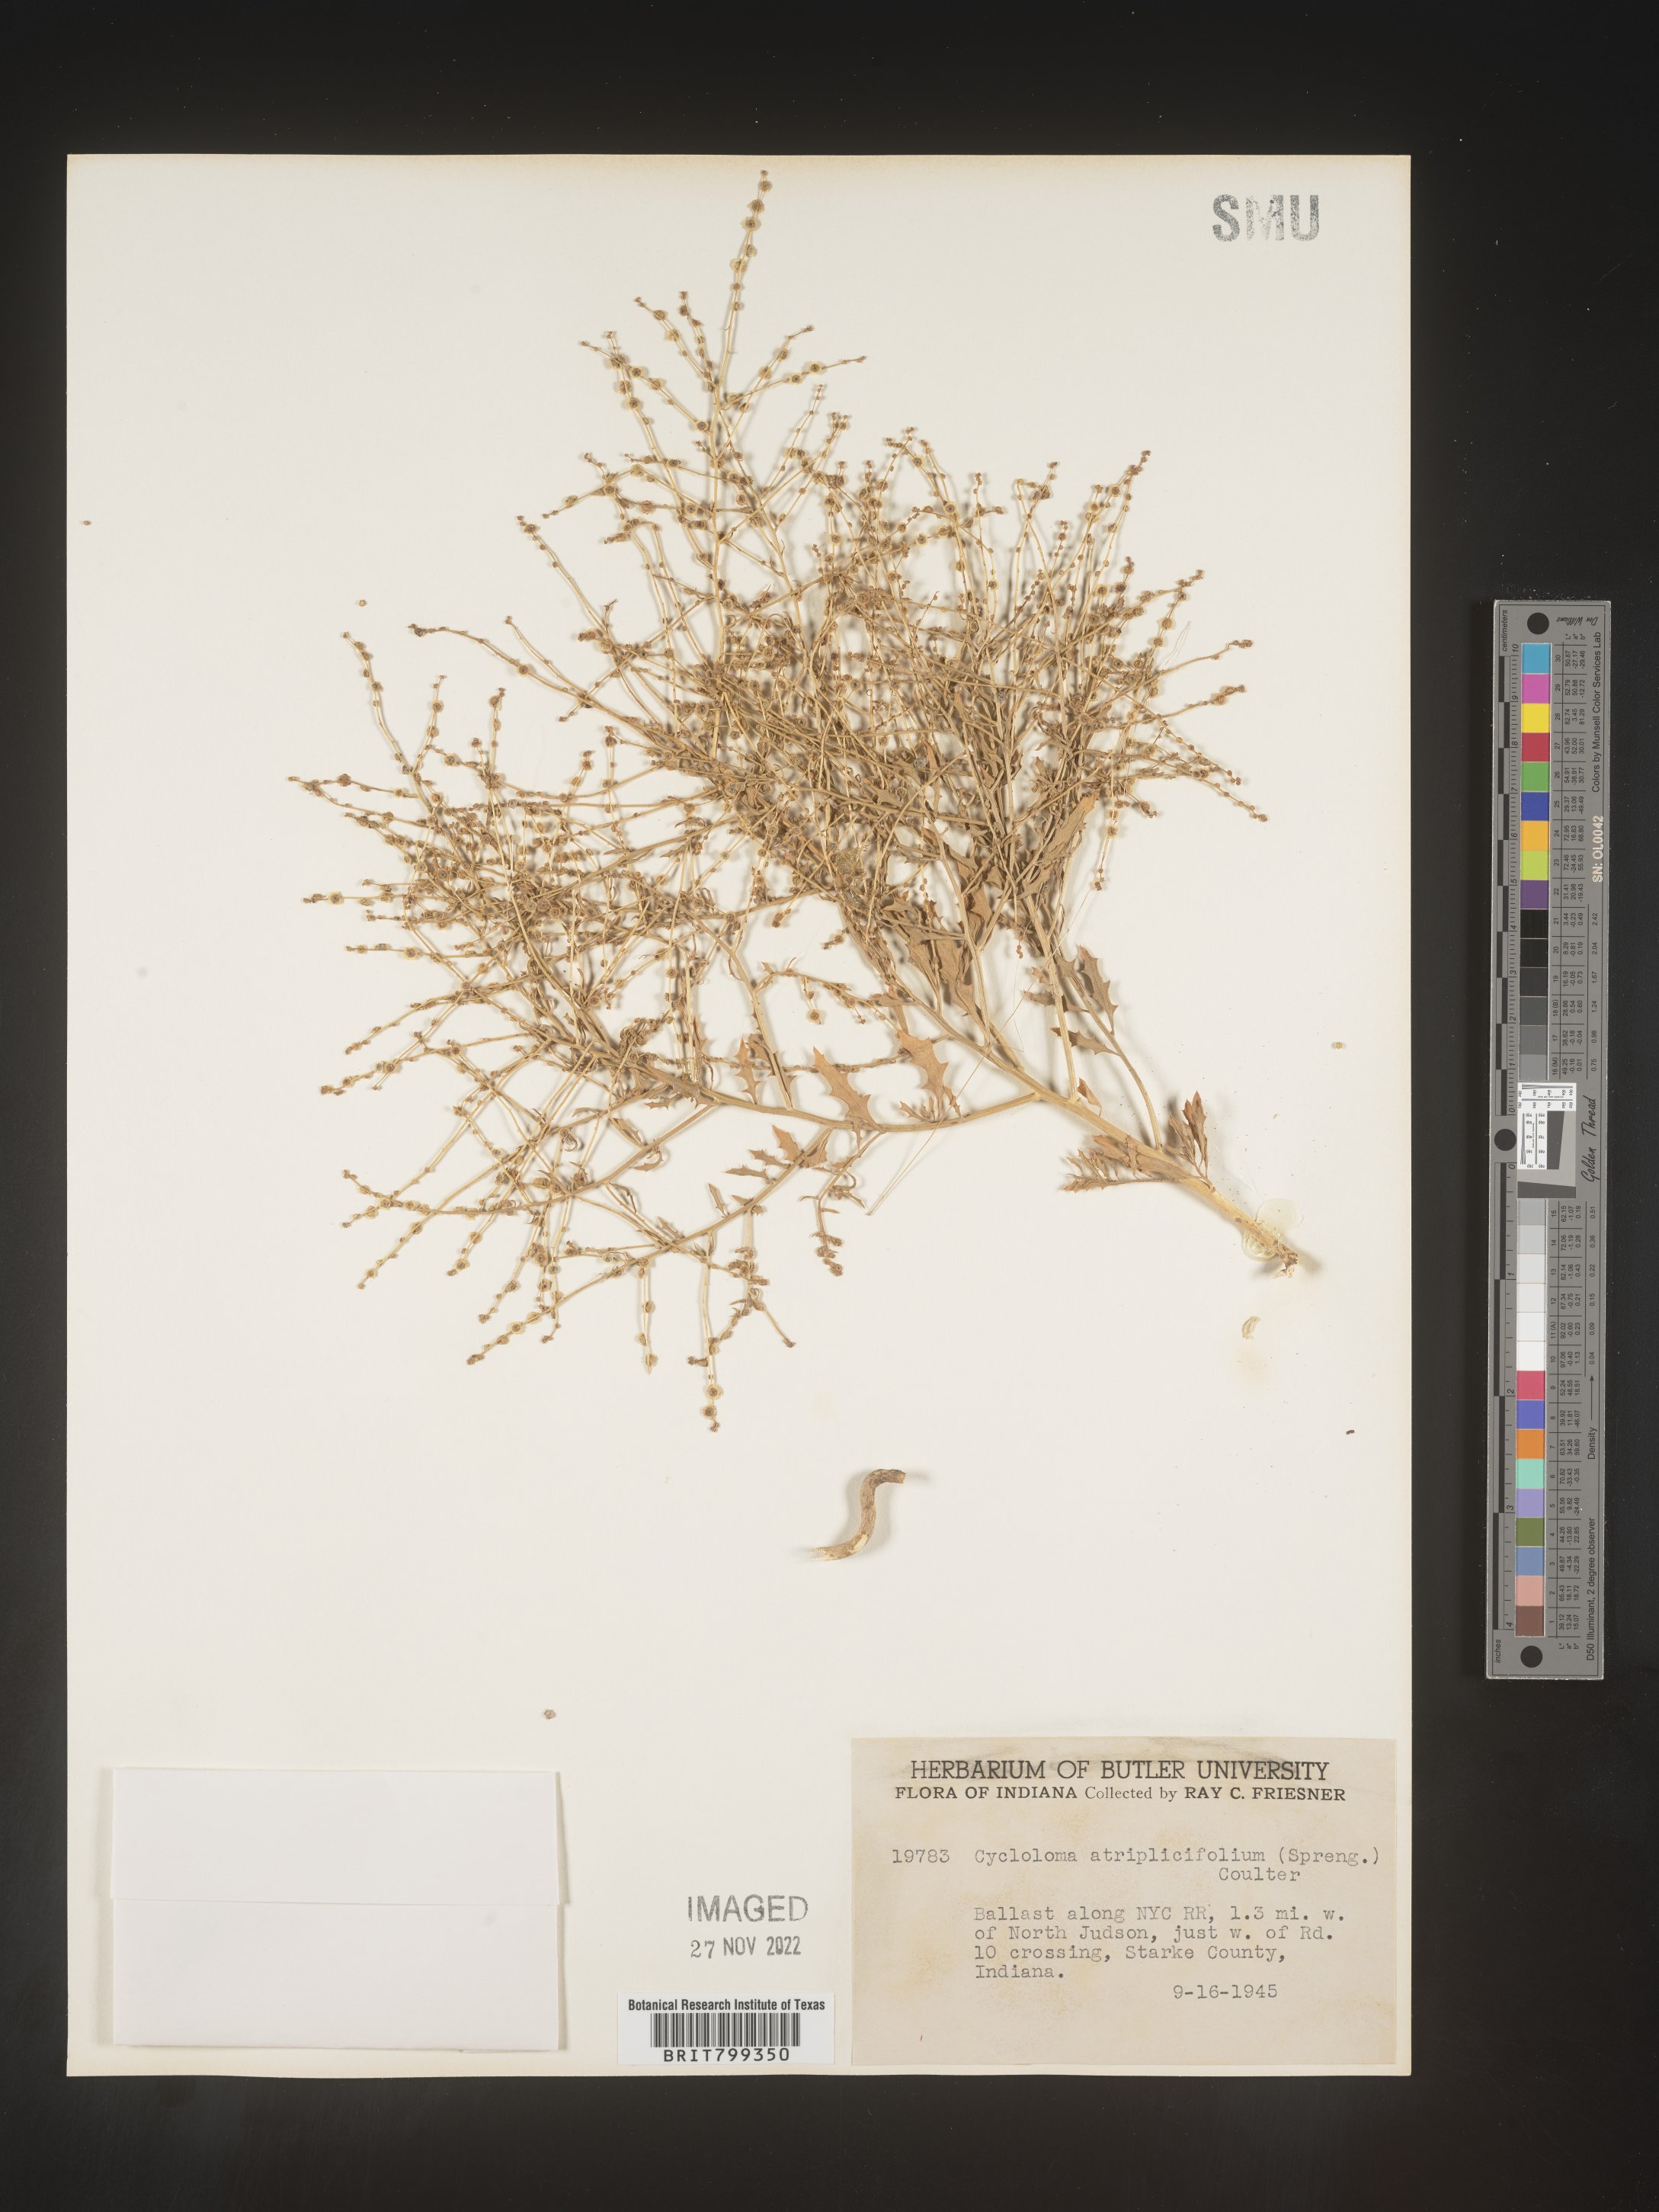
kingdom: Plantae
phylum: Tracheophyta
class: Magnoliopsida
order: Caryophyllales
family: Amaranthaceae
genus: Dysphania
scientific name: Dysphania atriplicifolia
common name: Plains tumbleweed
